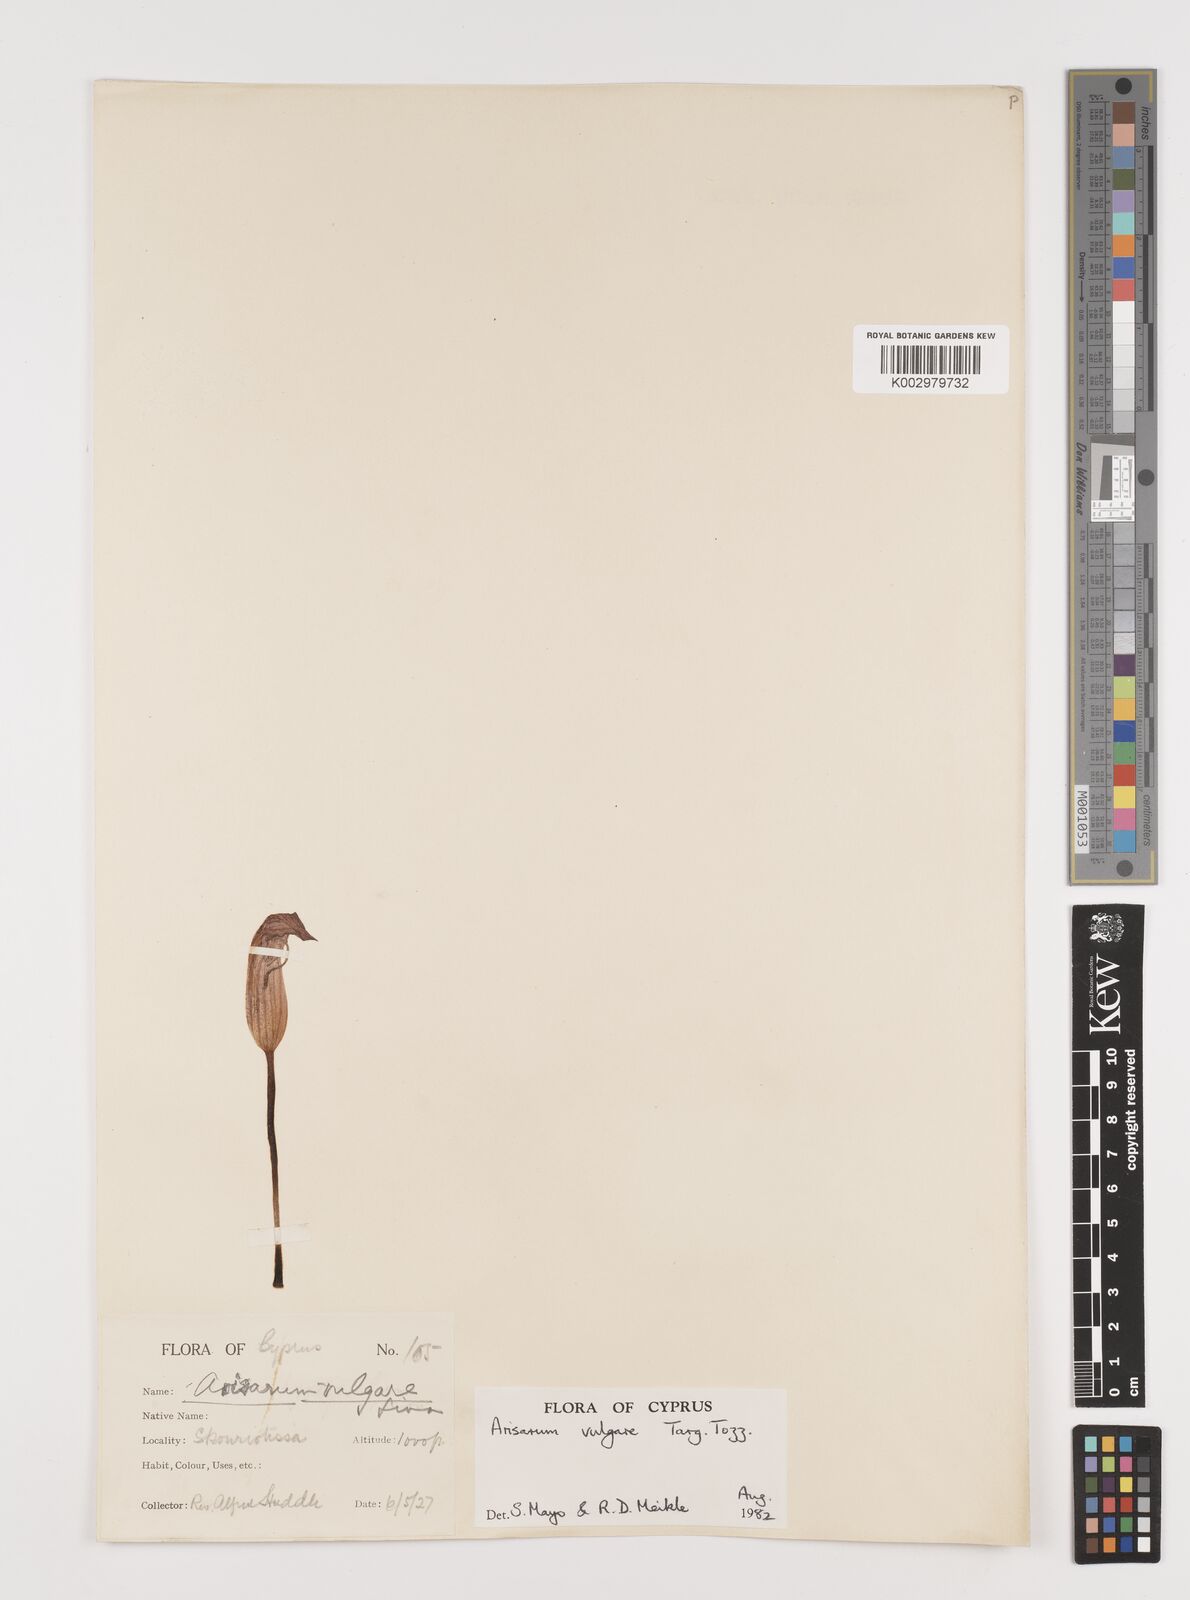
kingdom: Plantae
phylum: Tracheophyta
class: Liliopsida
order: Alismatales
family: Araceae
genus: Arisarum
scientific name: Arisarum vulgare
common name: Common arisarum
